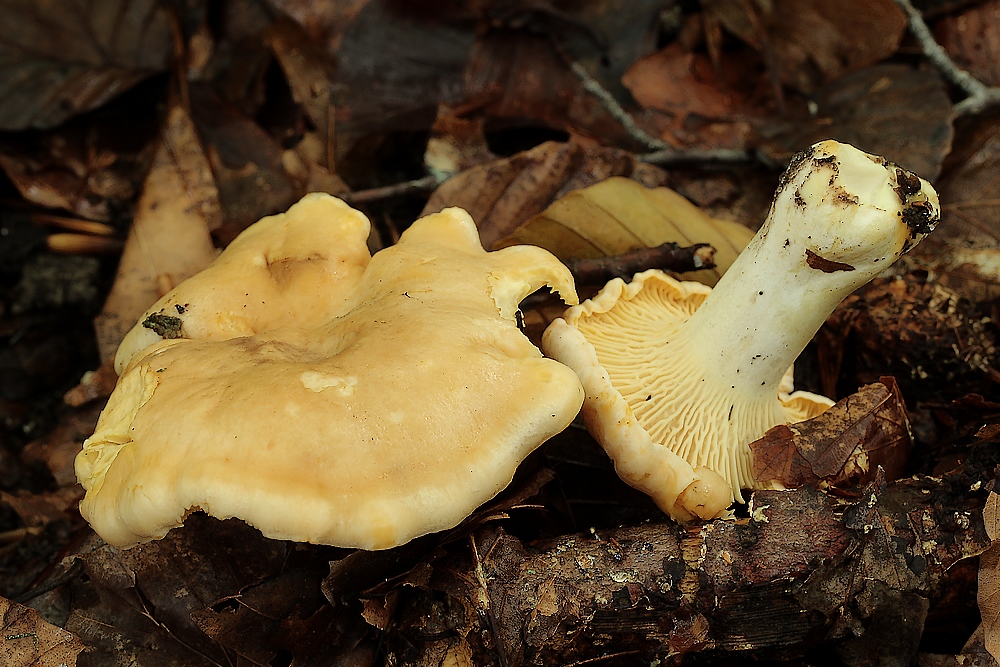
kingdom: Fungi
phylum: Basidiomycota
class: Agaricomycetes
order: Cantharellales
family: Hydnaceae
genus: Cantharellus
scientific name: Cantharellus pallens
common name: bleg kantarel
